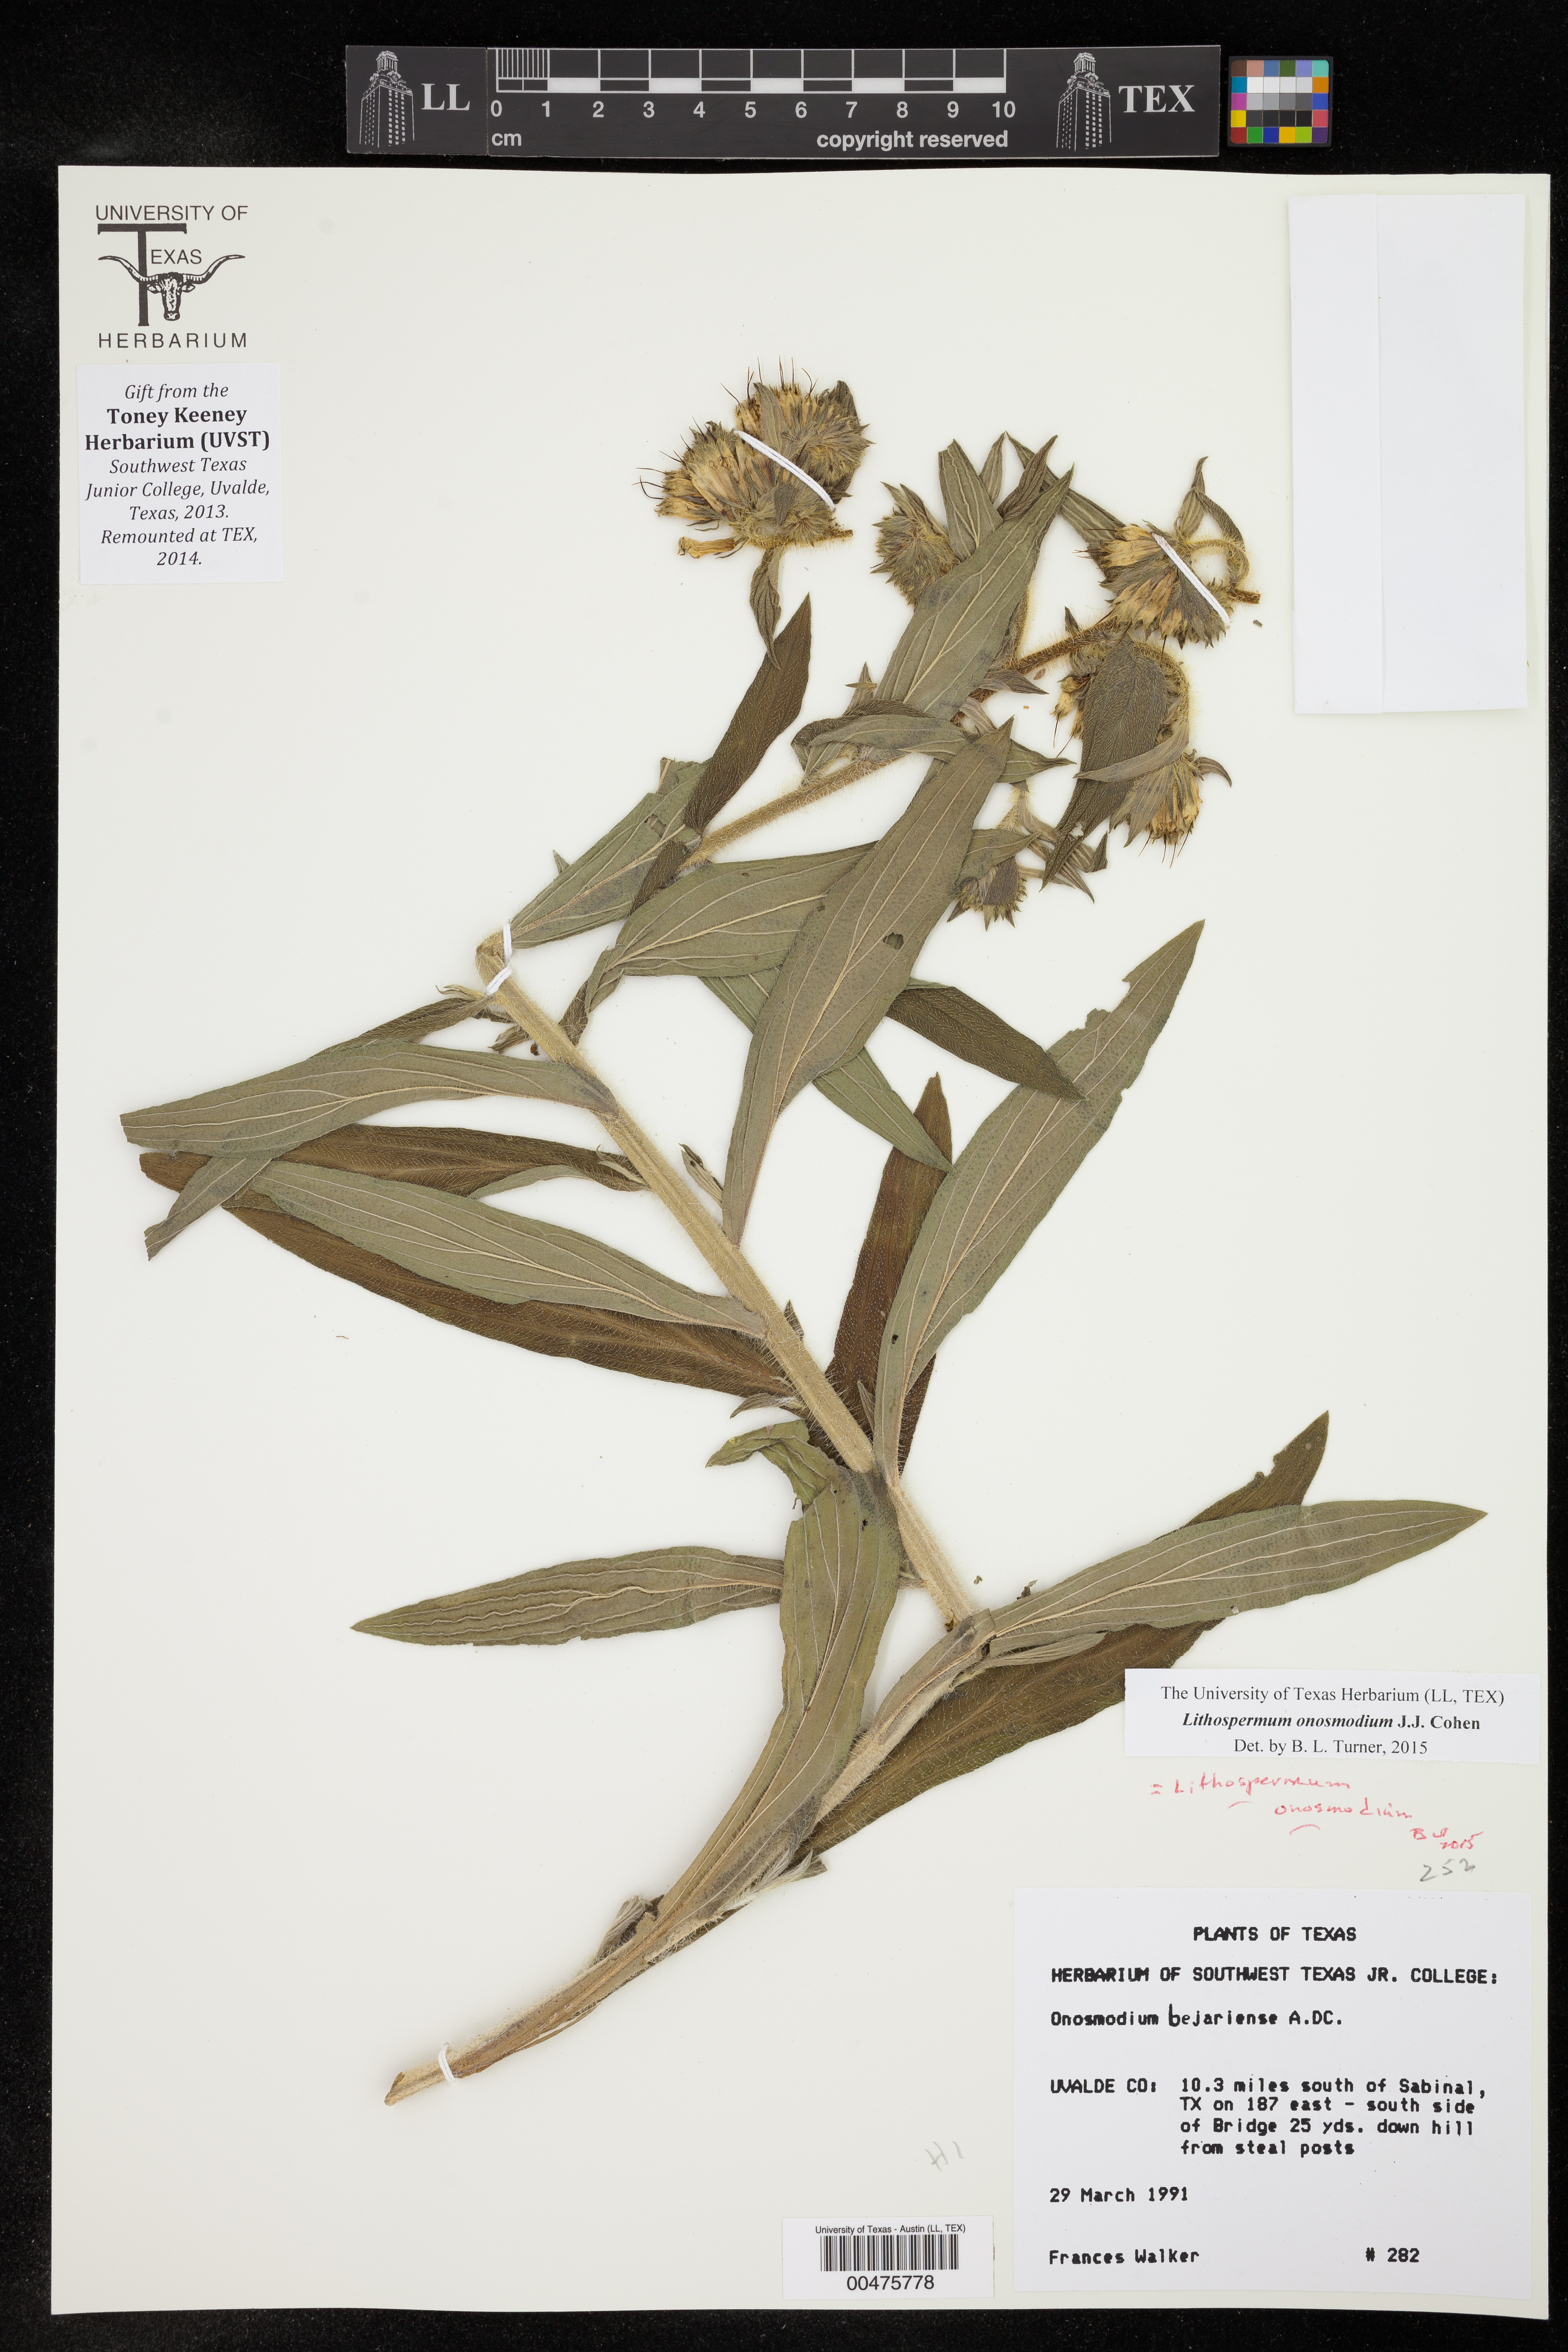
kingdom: Plantae
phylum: Tracheophyta
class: Magnoliopsida
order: Boraginales
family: Boraginaceae
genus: Lithospermum
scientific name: Lithospermum molle
